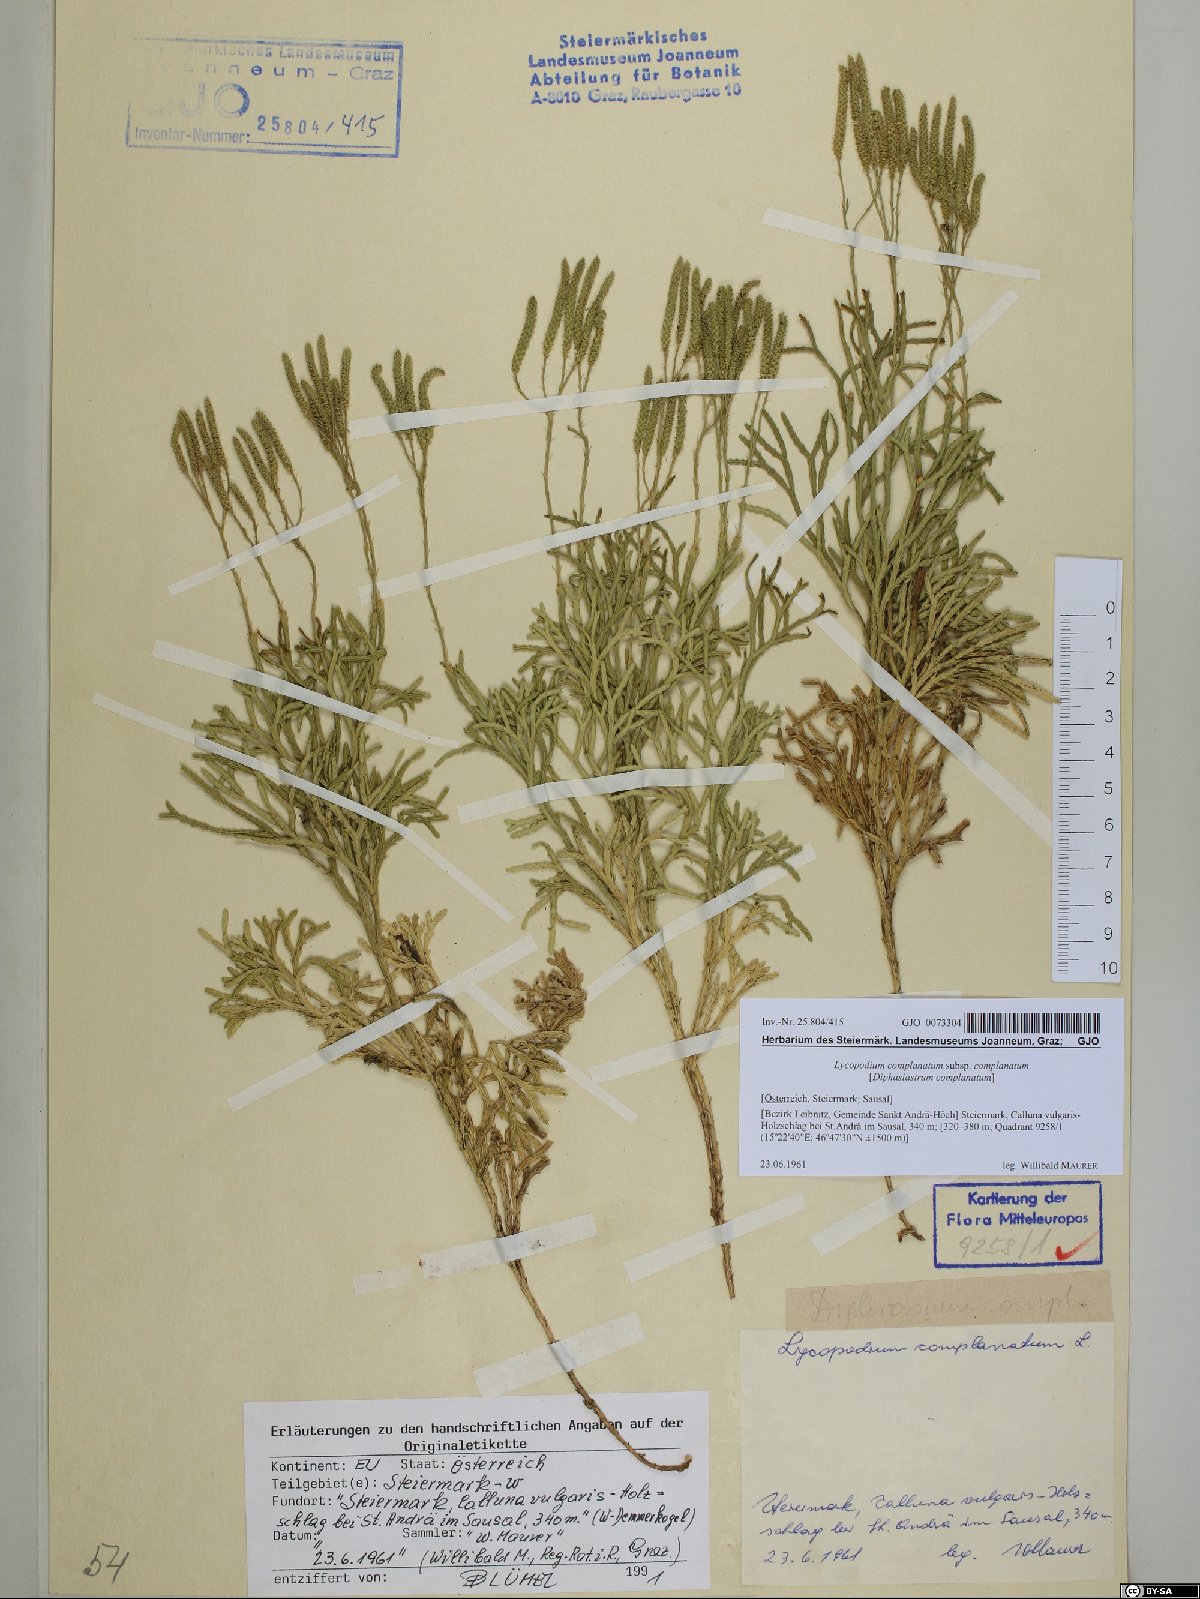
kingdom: Plantae
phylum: Tracheophyta
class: Lycopodiopsida
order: Lycopodiales
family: Lycopodiaceae
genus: Diphasiastrum
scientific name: Diphasiastrum complanatum
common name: Northern running-pine
